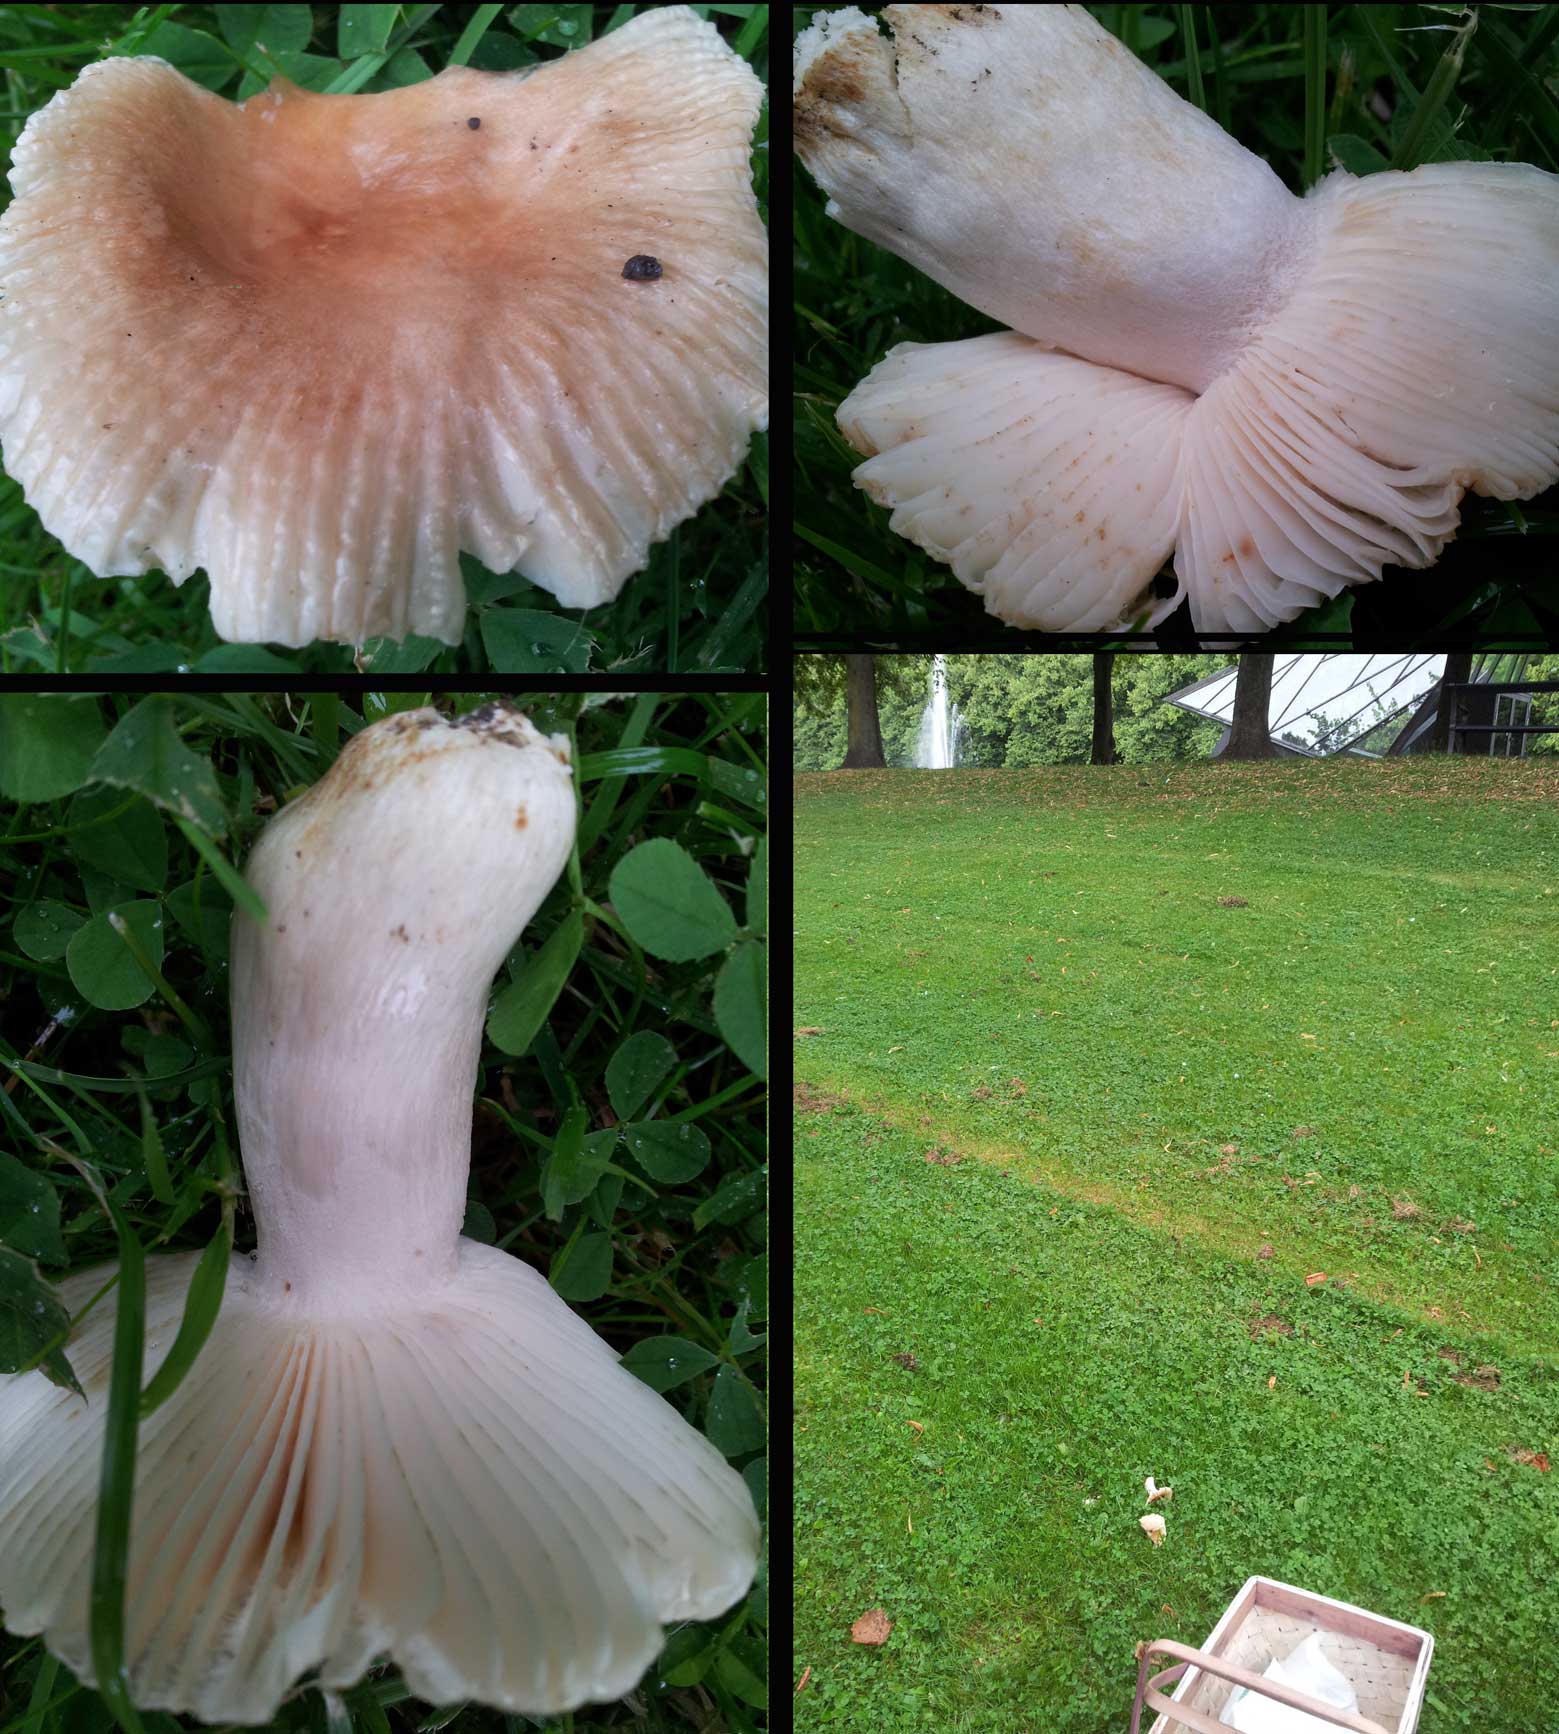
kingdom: Fungi
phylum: Basidiomycota
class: Agaricomycetes
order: Russulales
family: Russulaceae
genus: Russula
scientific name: Russula recondita
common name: mild kam-skørhat
